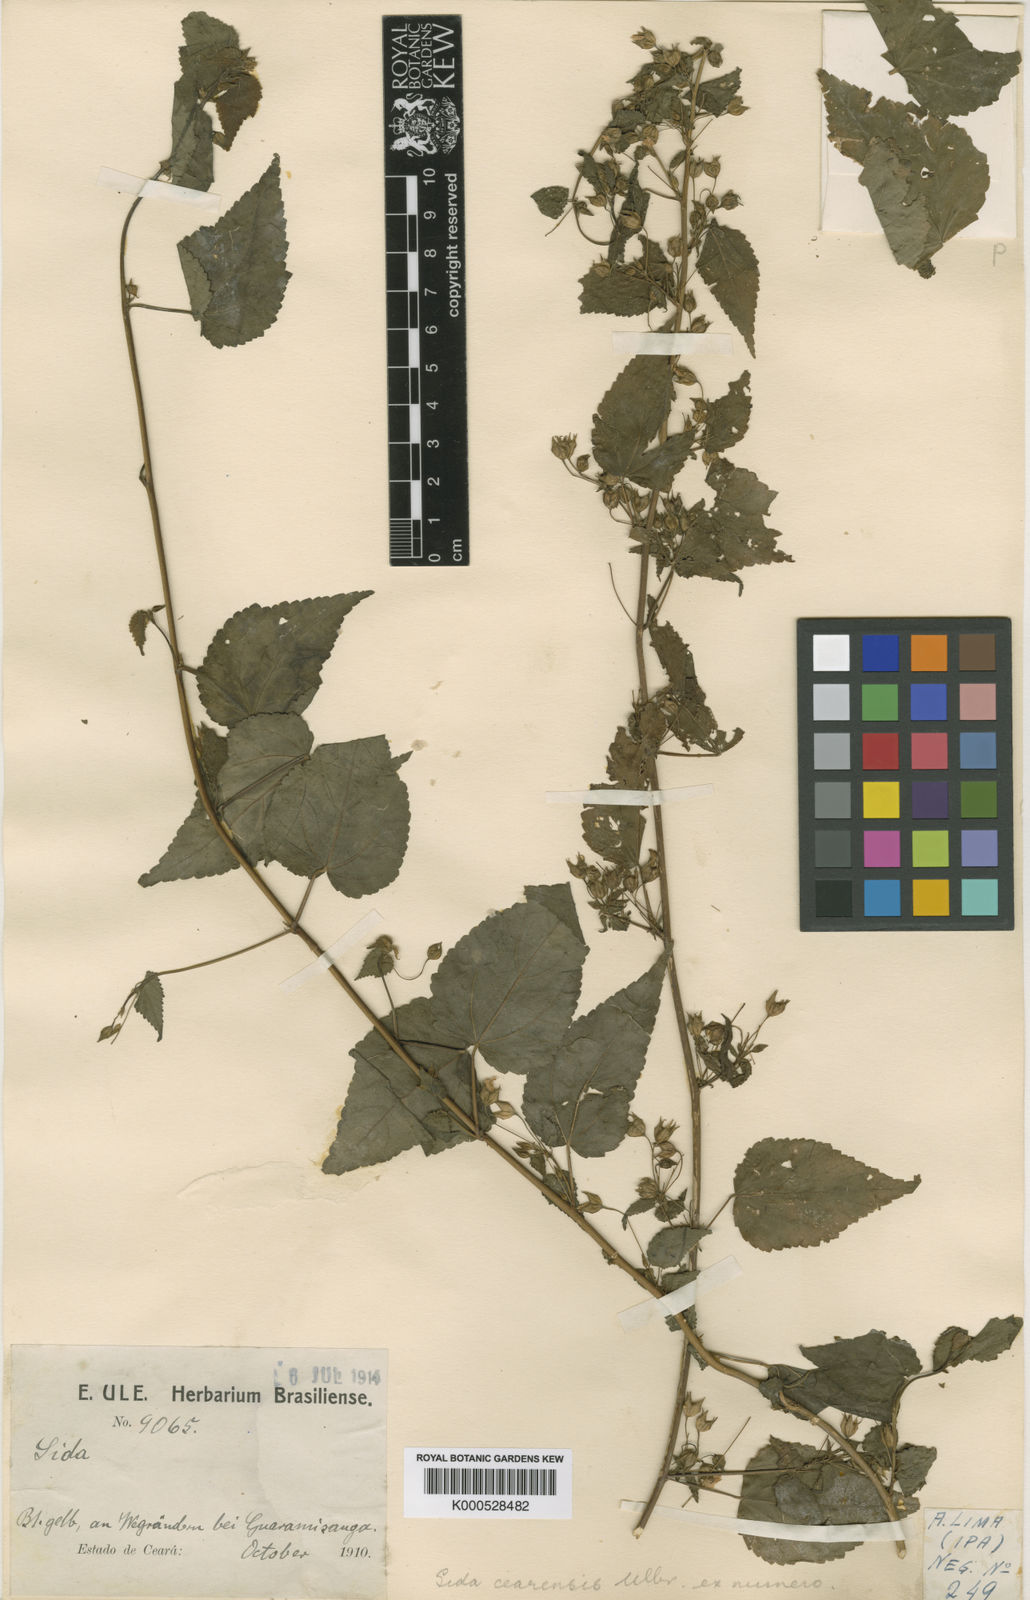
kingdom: Plantae
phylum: Tracheophyta
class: Magnoliopsida
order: Malvales
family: Malvaceae
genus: Sida
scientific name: Sida cearensis
